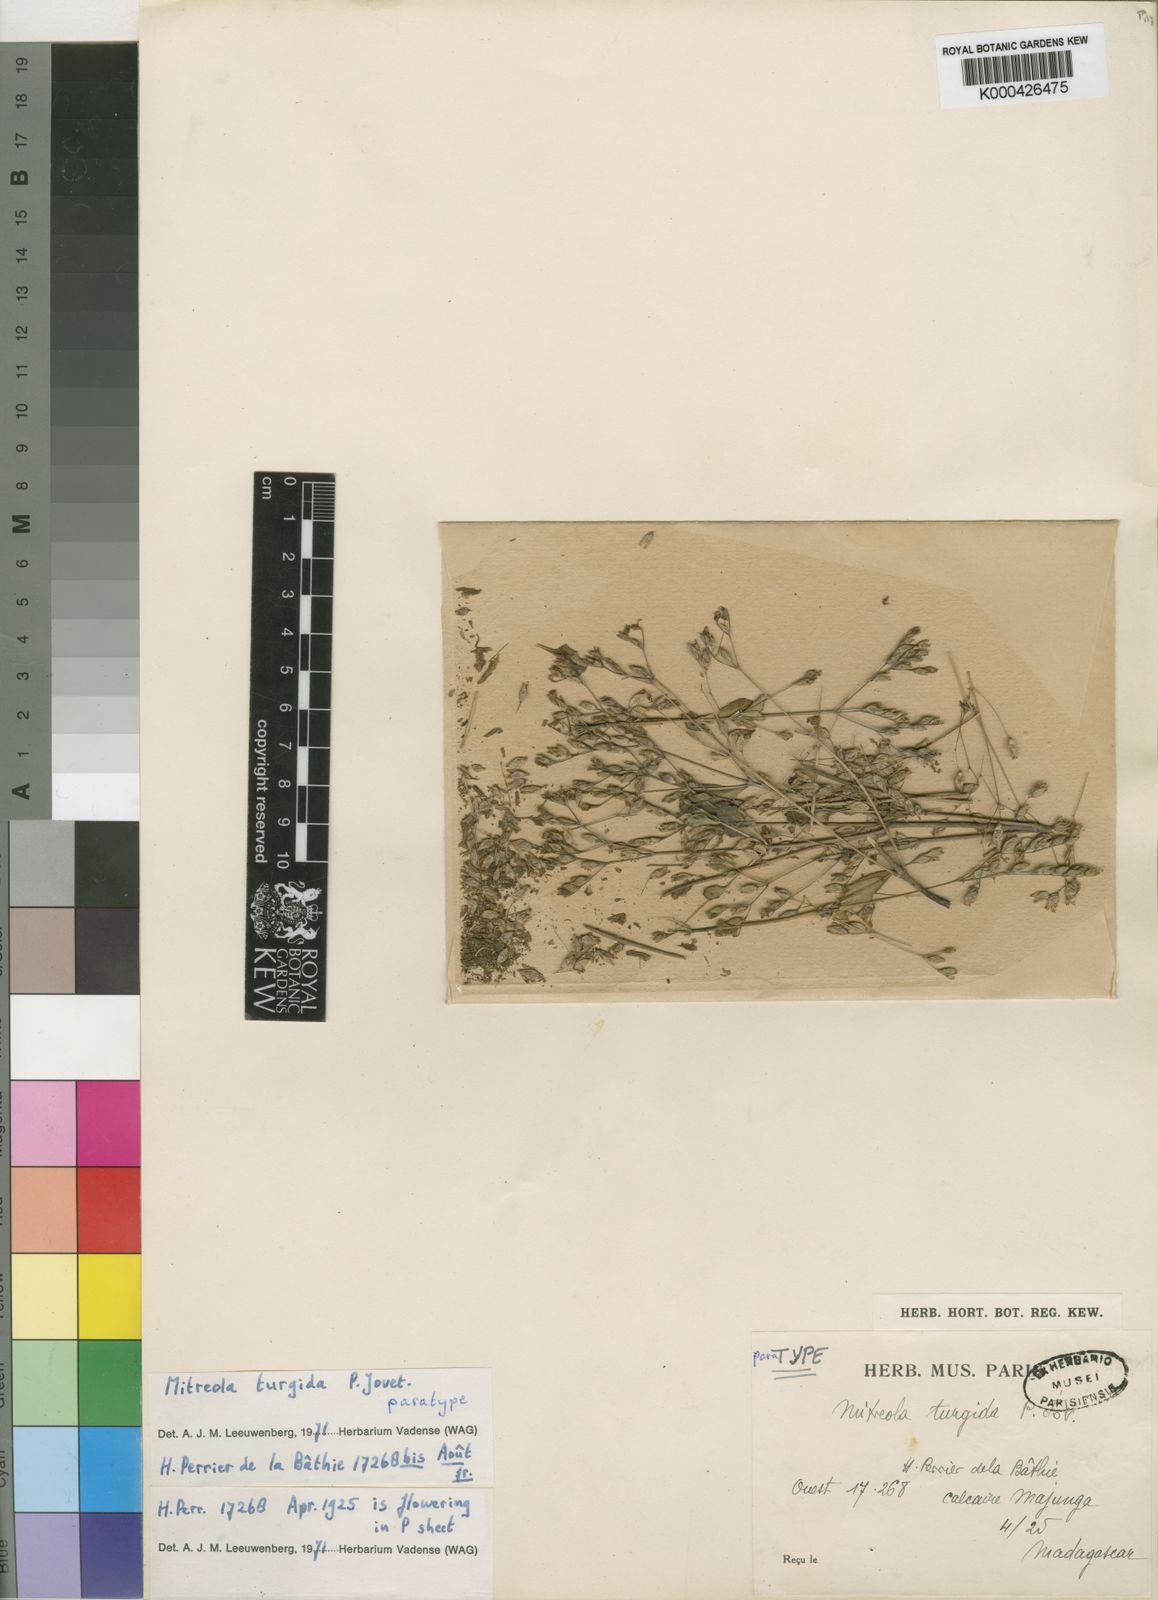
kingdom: Plantae
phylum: Tracheophyta
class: Magnoliopsida
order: Gentianales
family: Loganiaceae
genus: Mitreola
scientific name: Mitreola turgida
